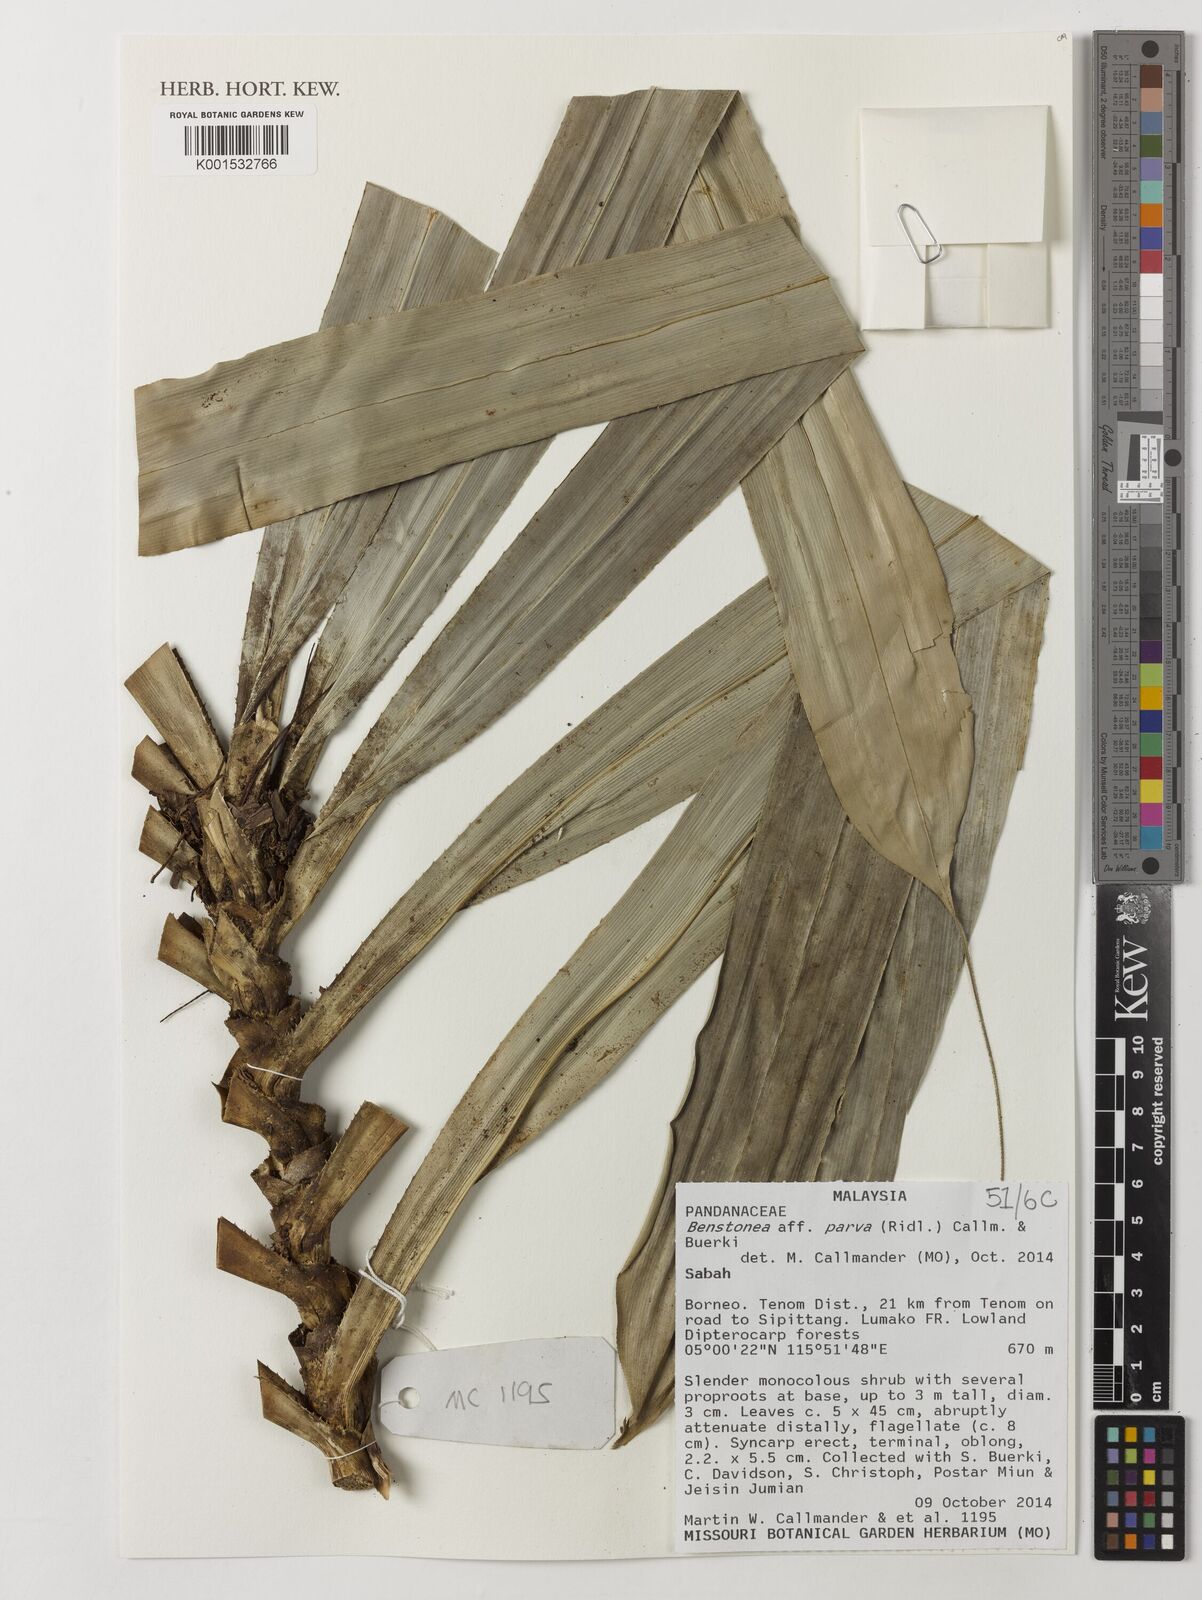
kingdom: Plantae
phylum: Tracheophyta
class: Liliopsida
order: Pandanales
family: Pandanaceae
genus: Benstonea
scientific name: Benstonea parva
